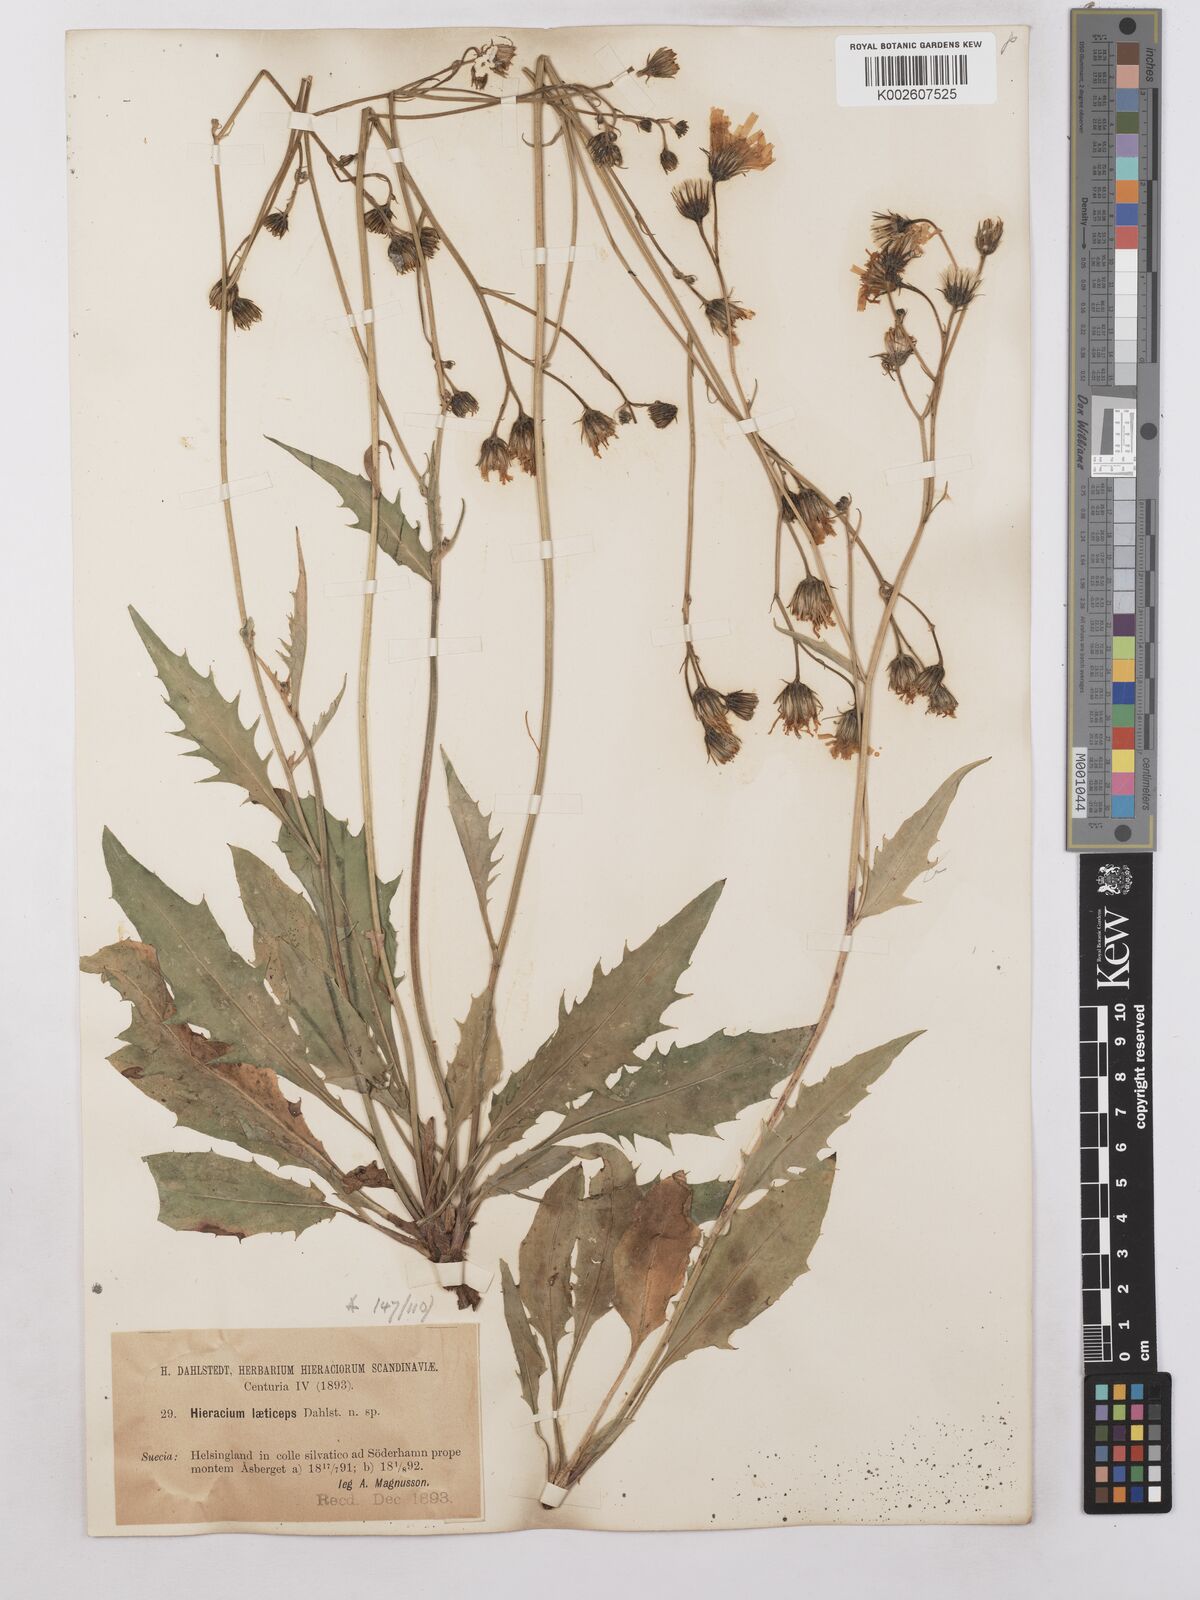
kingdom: Plantae
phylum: Tracheophyta
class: Magnoliopsida
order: Asterales
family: Asteraceae
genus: Hieracium
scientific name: Hieracium caesium
